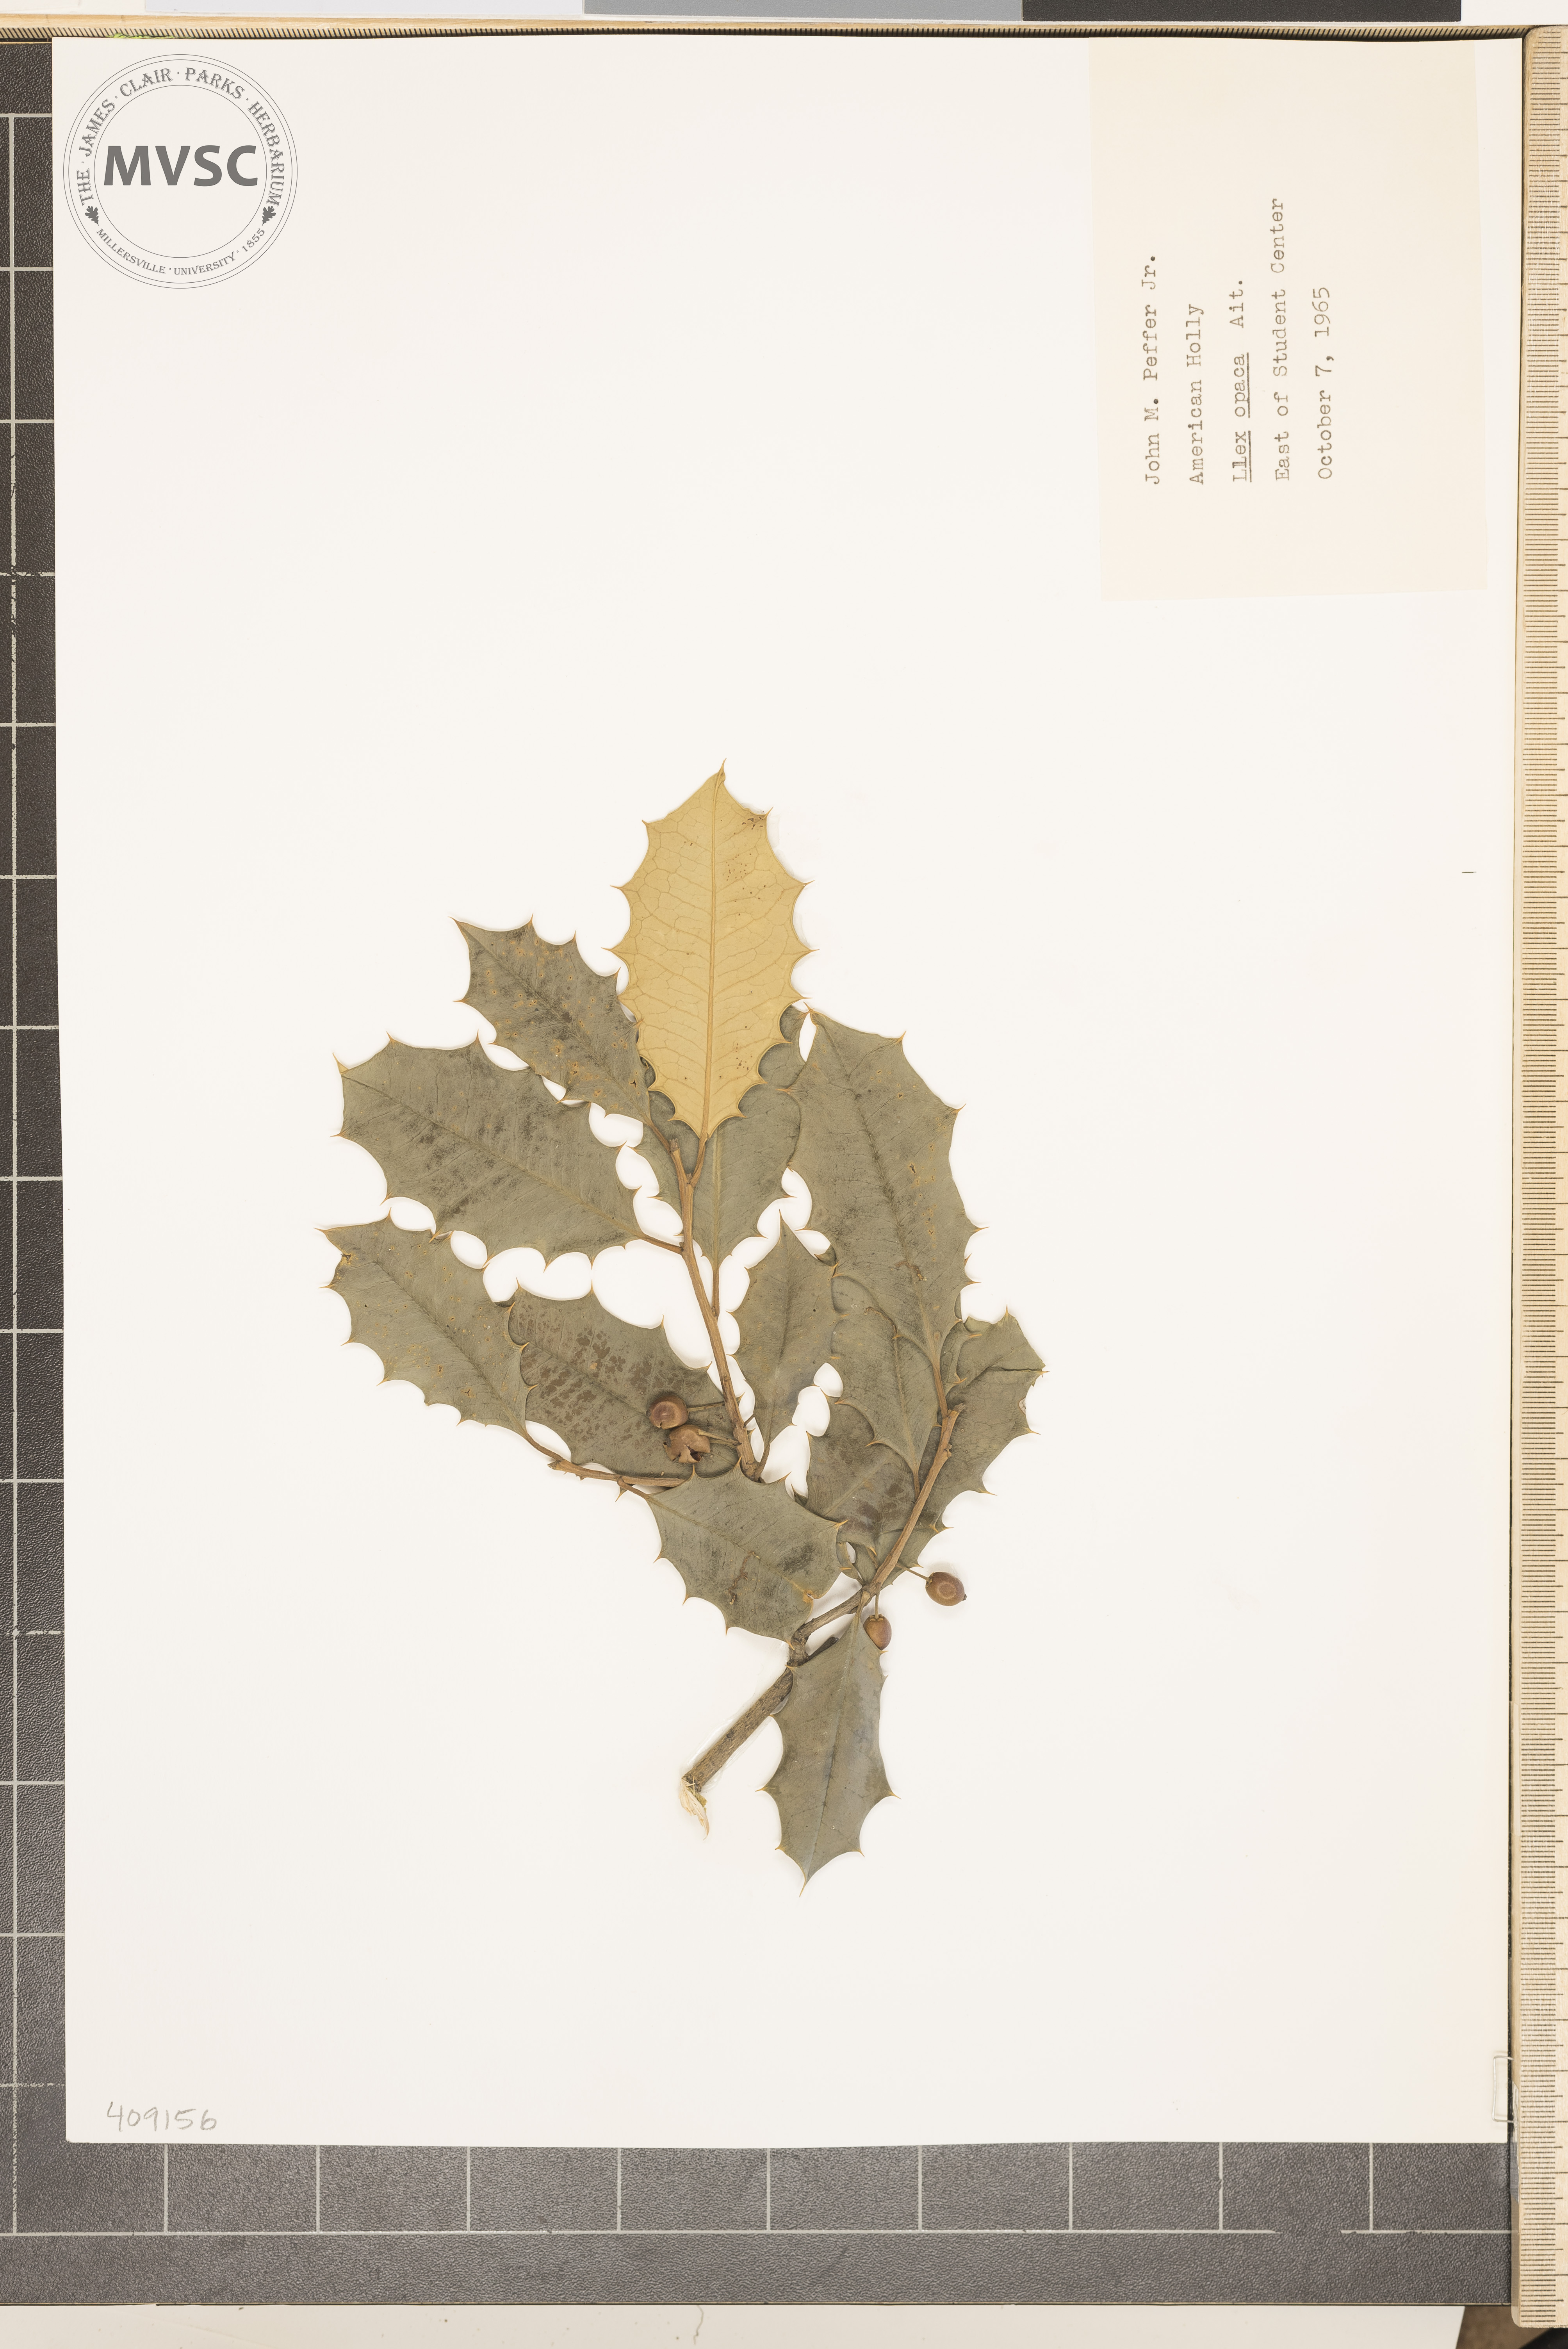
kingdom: Plantae
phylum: Tracheophyta
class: Magnoliopsida
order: Aquifoliales
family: Aquifoliaceae
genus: Ilex
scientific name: Ilex opaca
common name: American holly
